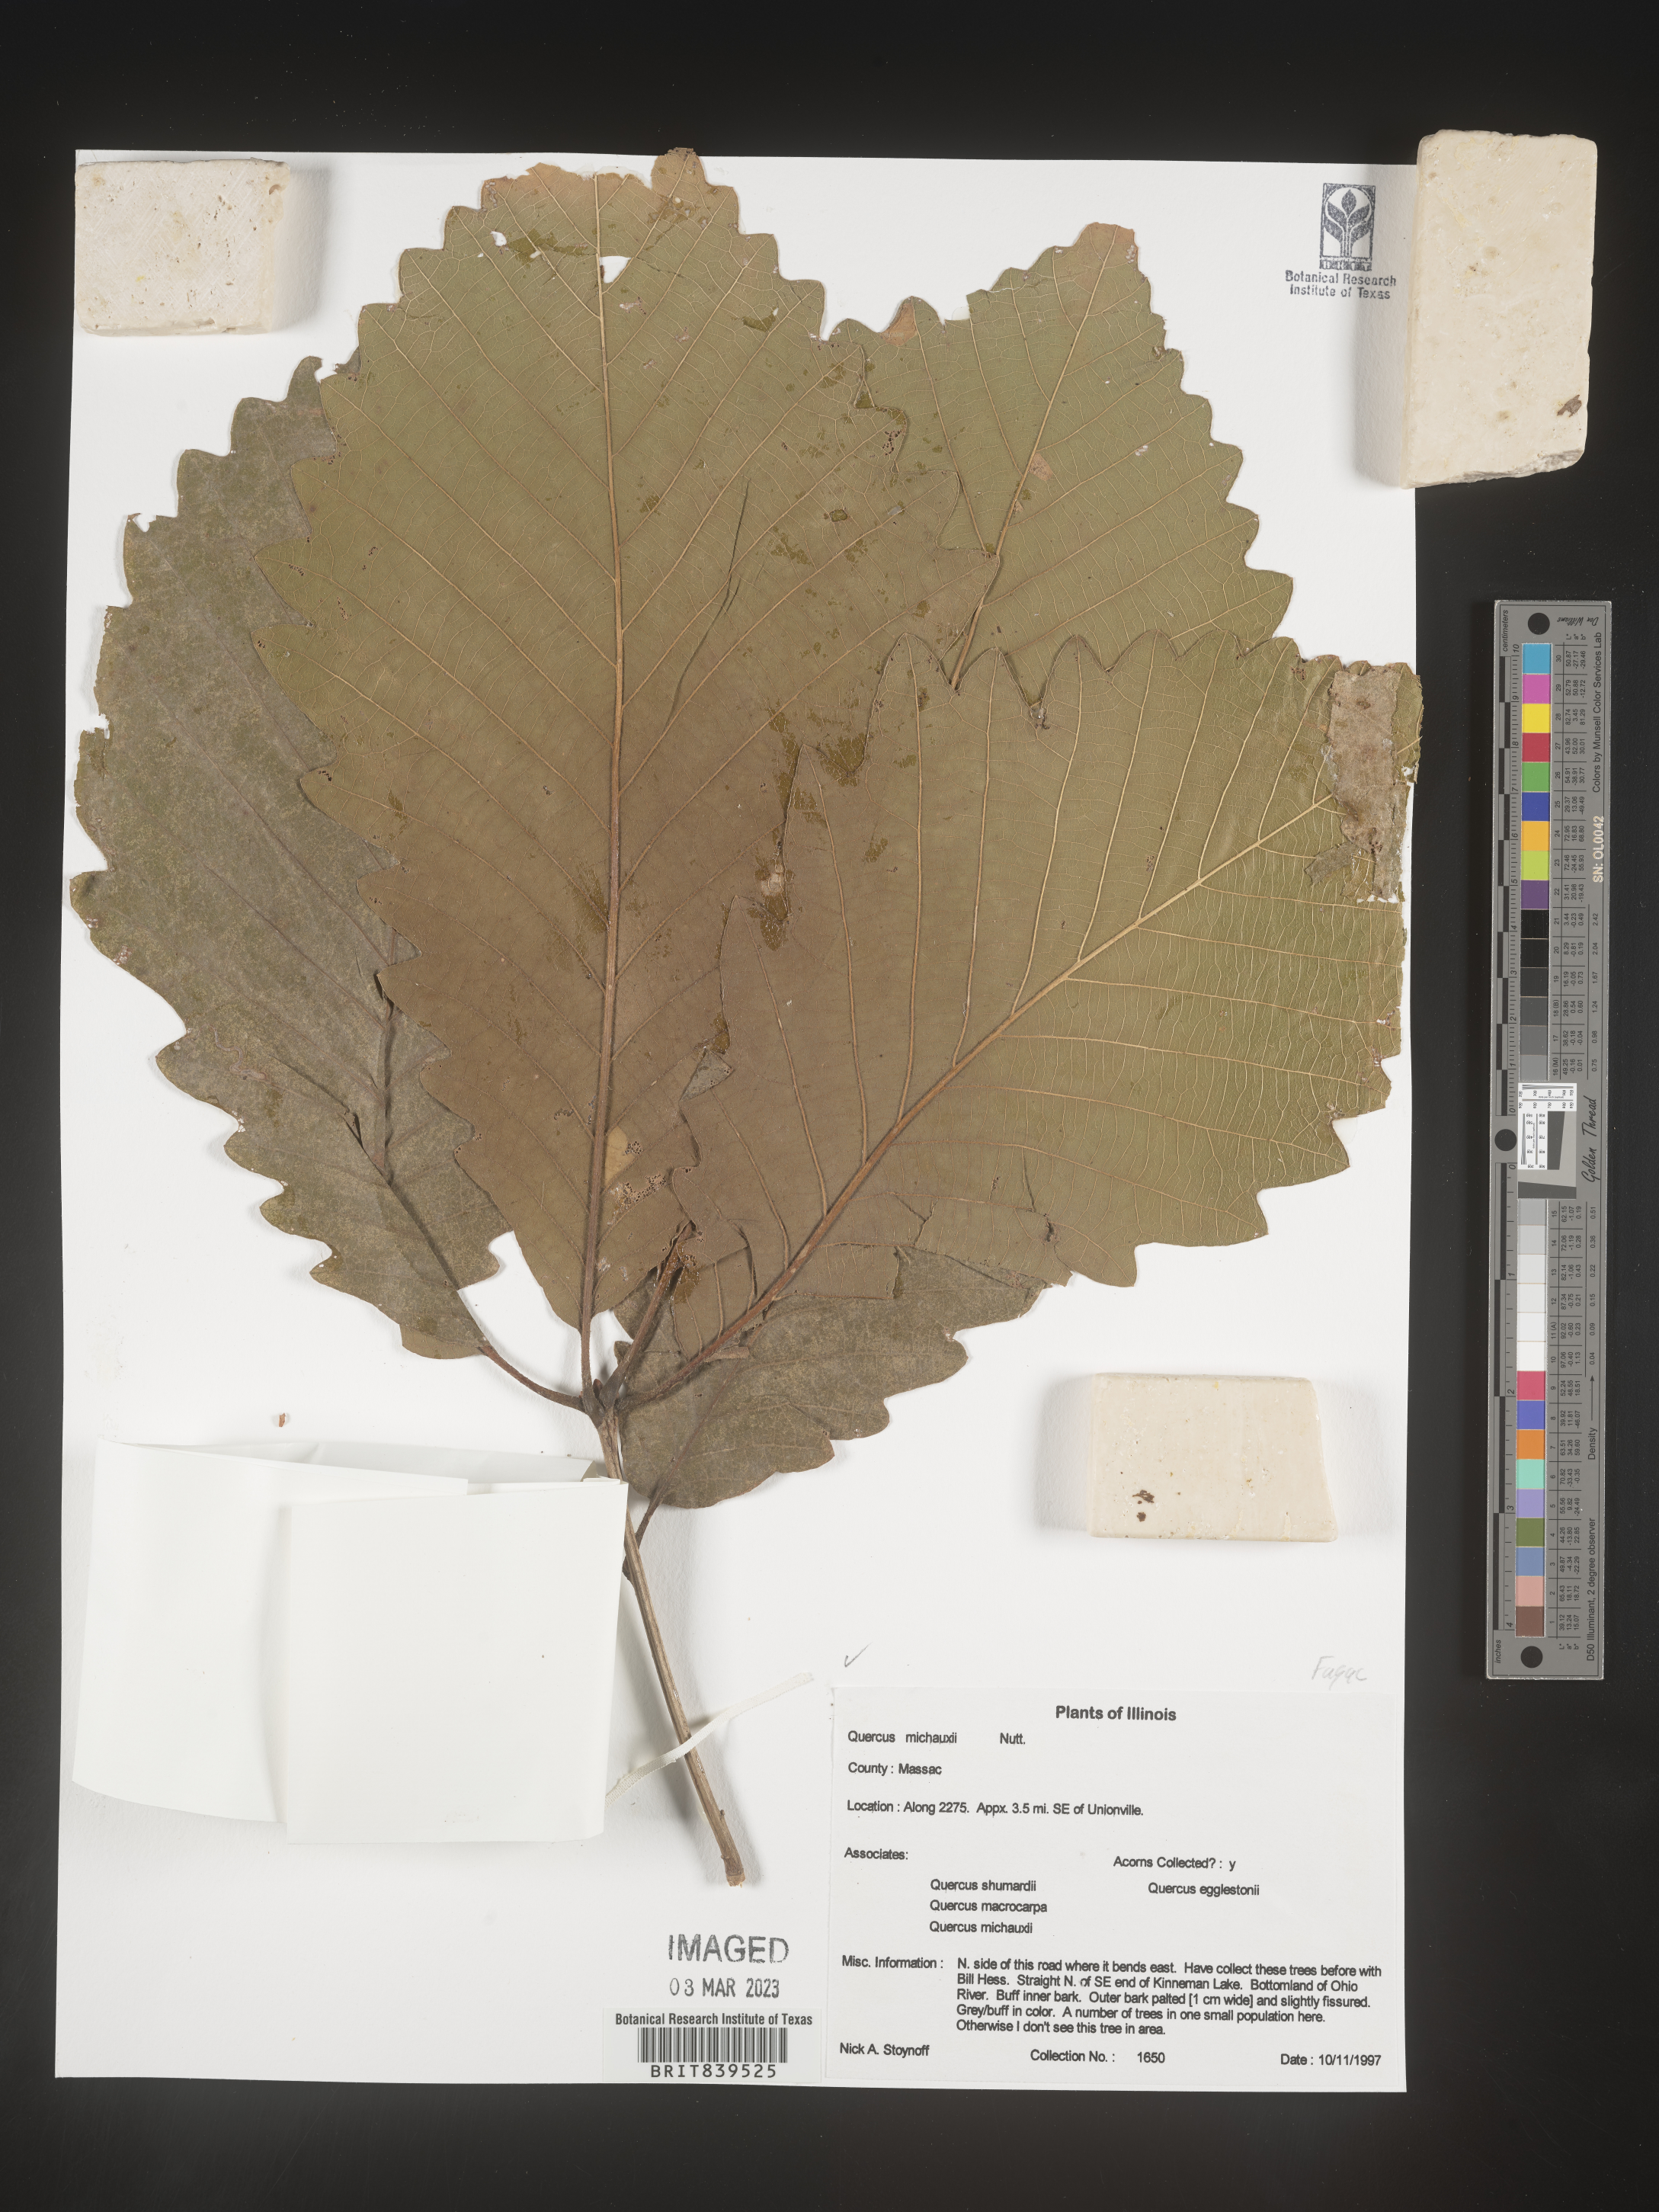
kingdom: Plantae
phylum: Tracheophyta
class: Magnoliopsida
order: Fagales
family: Fagaceae
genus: Quercus
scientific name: Quercus michauxii
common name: Swamp chestnut oak
